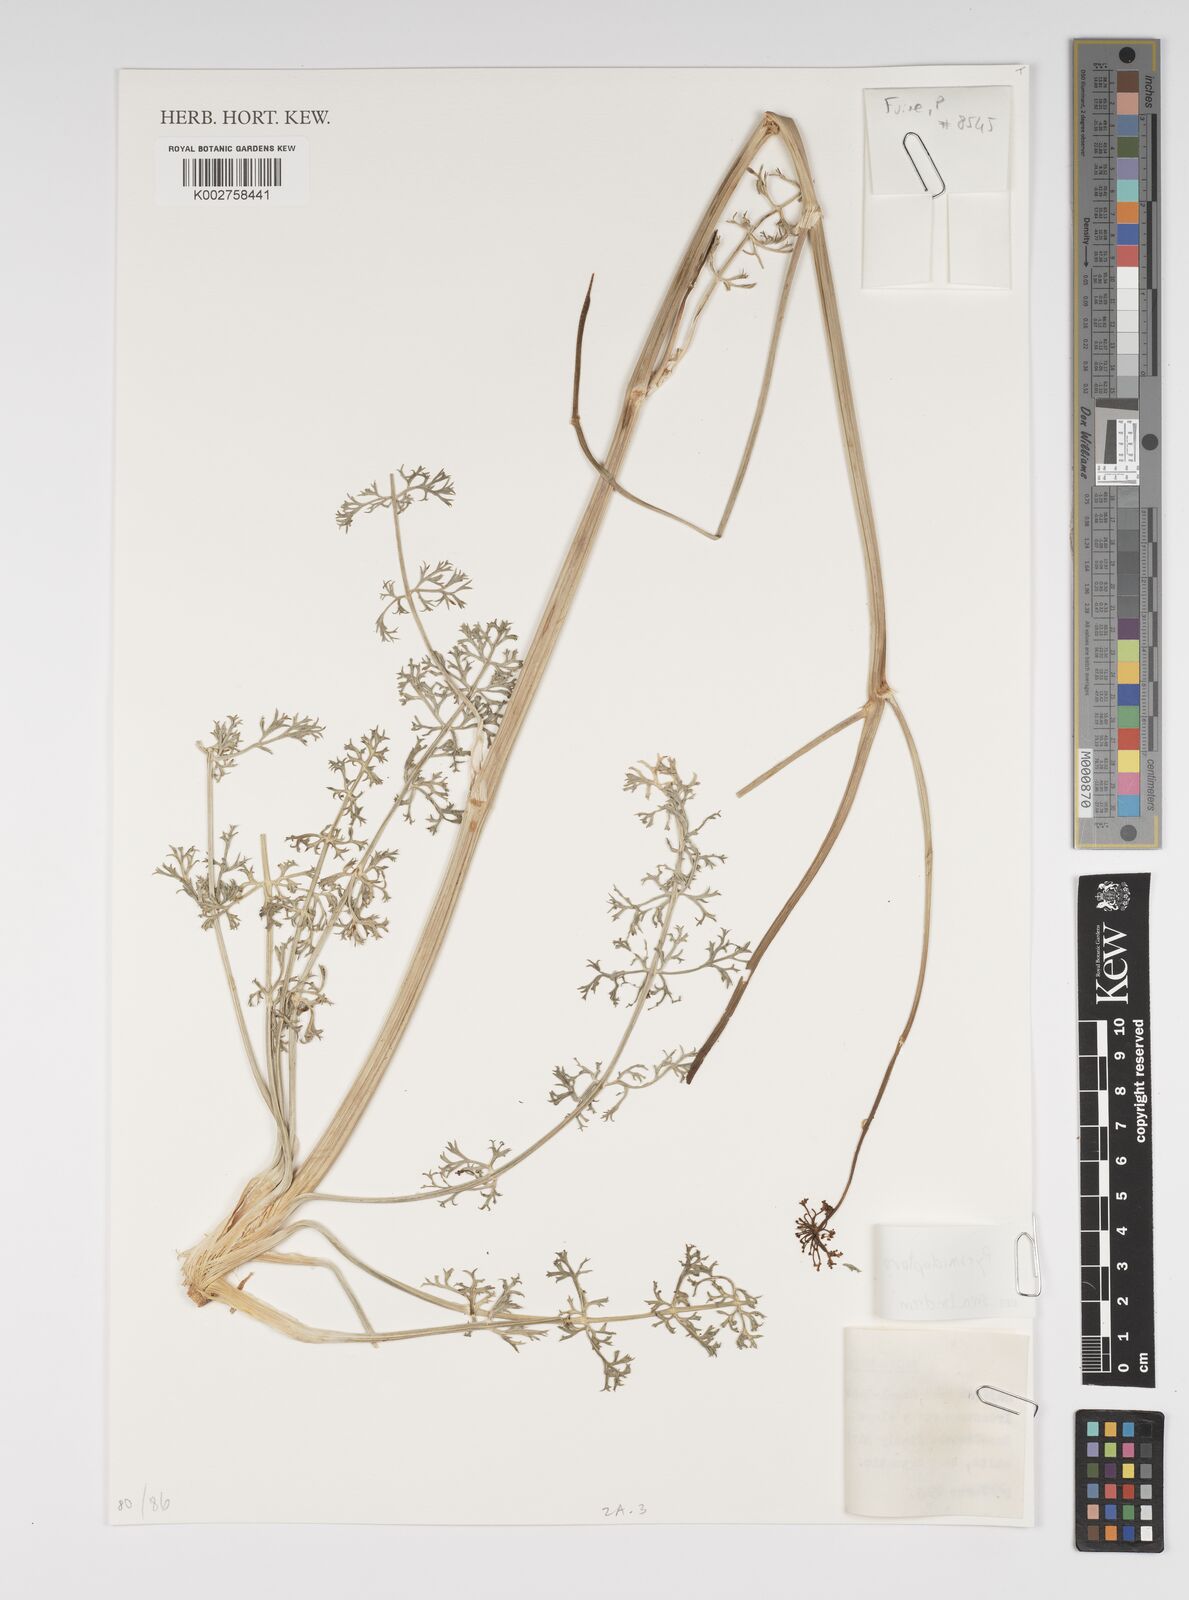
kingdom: Plantae
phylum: Tracheophyta
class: Magnoliopsida
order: Apiales
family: Apiaceae
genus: Pyramidoptera
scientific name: Pyramidoptera
